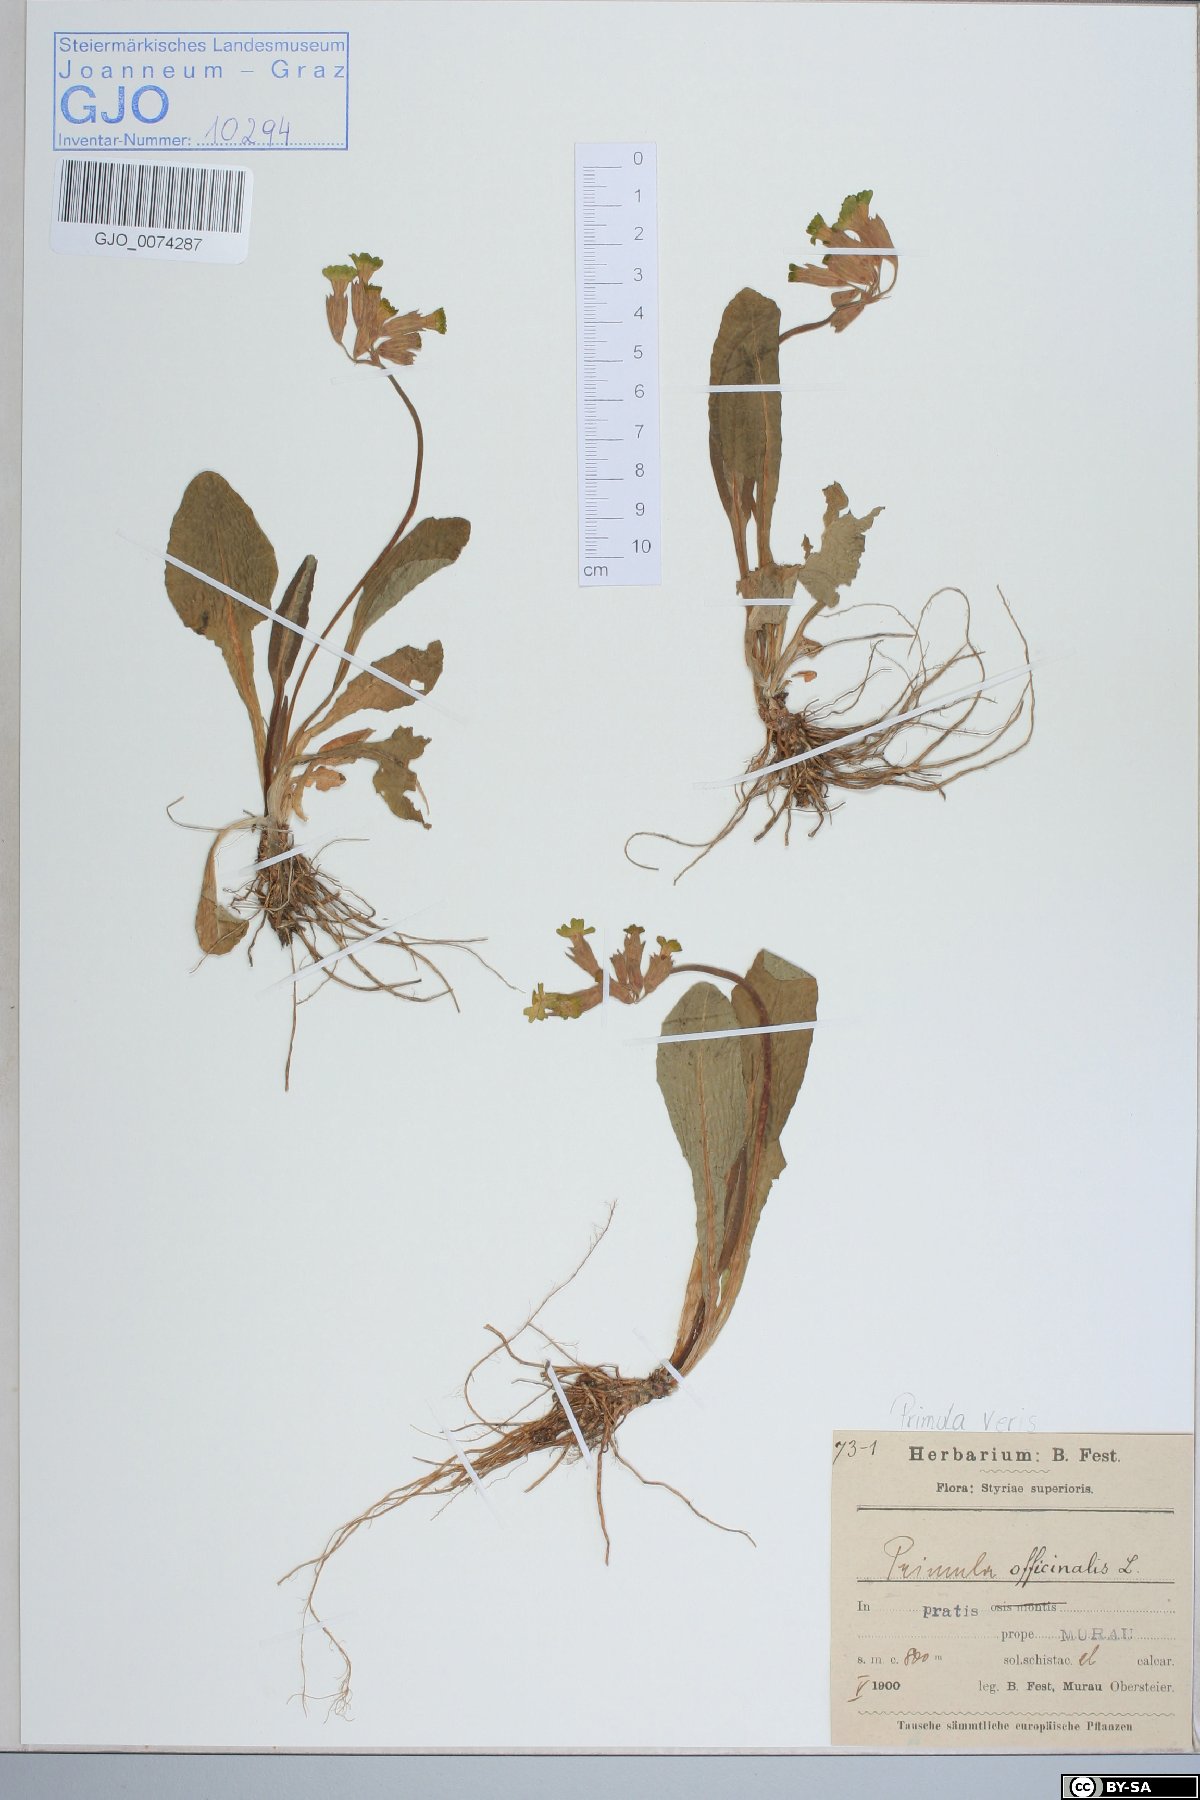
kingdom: Plantae
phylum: Tracheophyta
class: Magnoliopsida
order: Ericales
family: Primulaceae
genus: Primula
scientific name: Primula veris
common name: Cowslip
